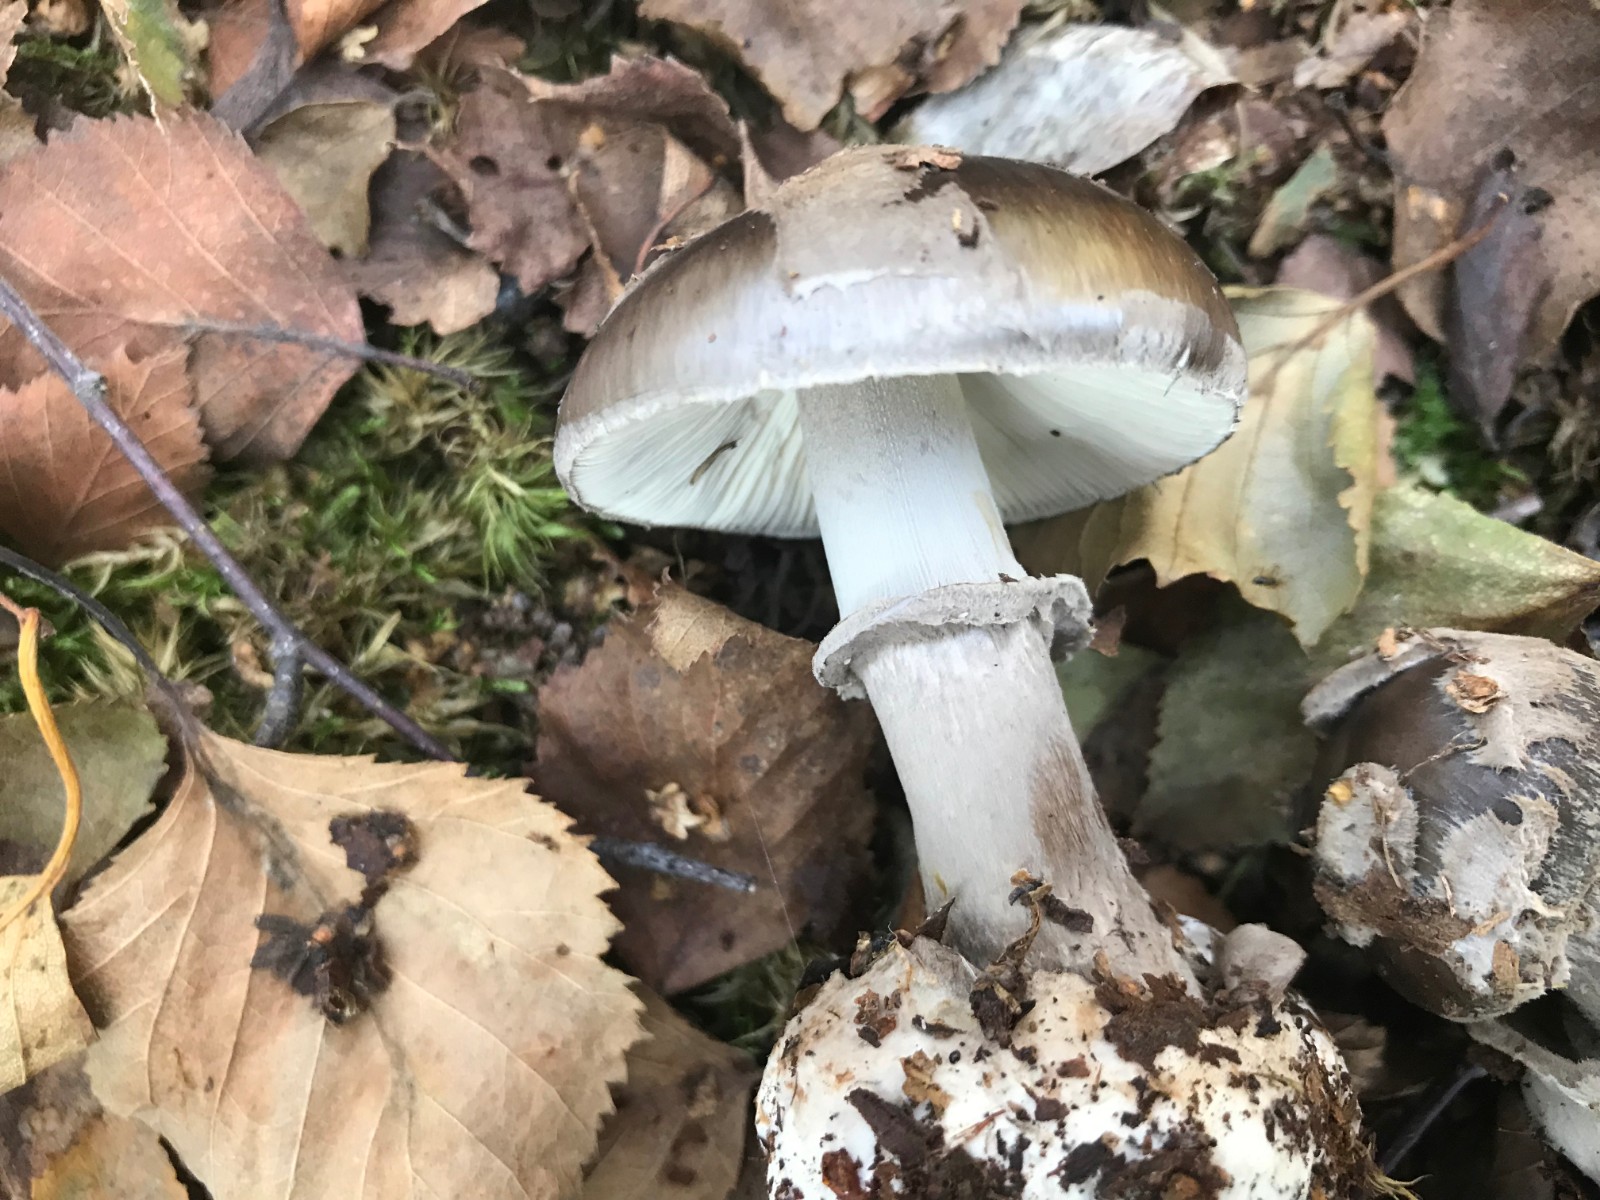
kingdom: Fungi
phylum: Basidiomycota
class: Agaricomycetes
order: Agaricales
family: Amanitaceae
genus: Amanita
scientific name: Amanita porphyria
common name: porfyr-fluesvamp
